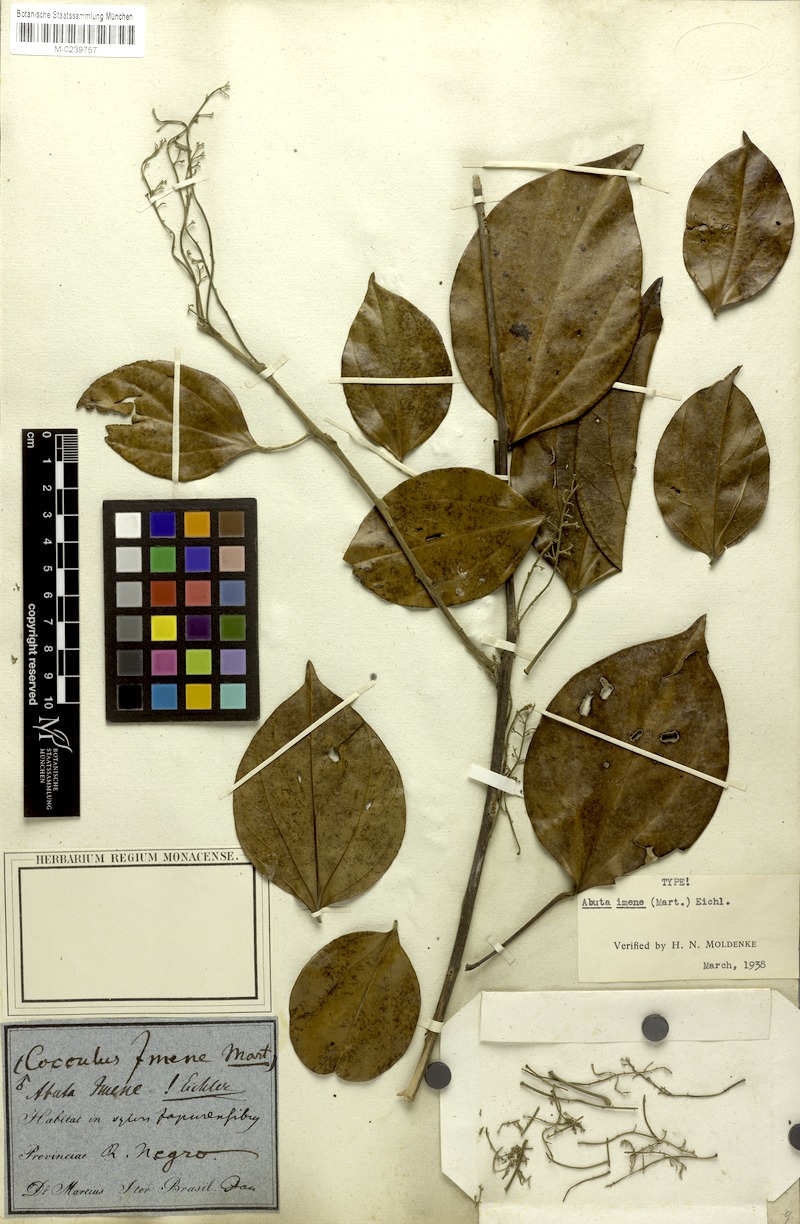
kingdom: Plantae
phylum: Tracheophyta
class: Magnoliopsida
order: Ranunculales
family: Menispermaceae
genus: Abuta
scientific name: Abuta imene
